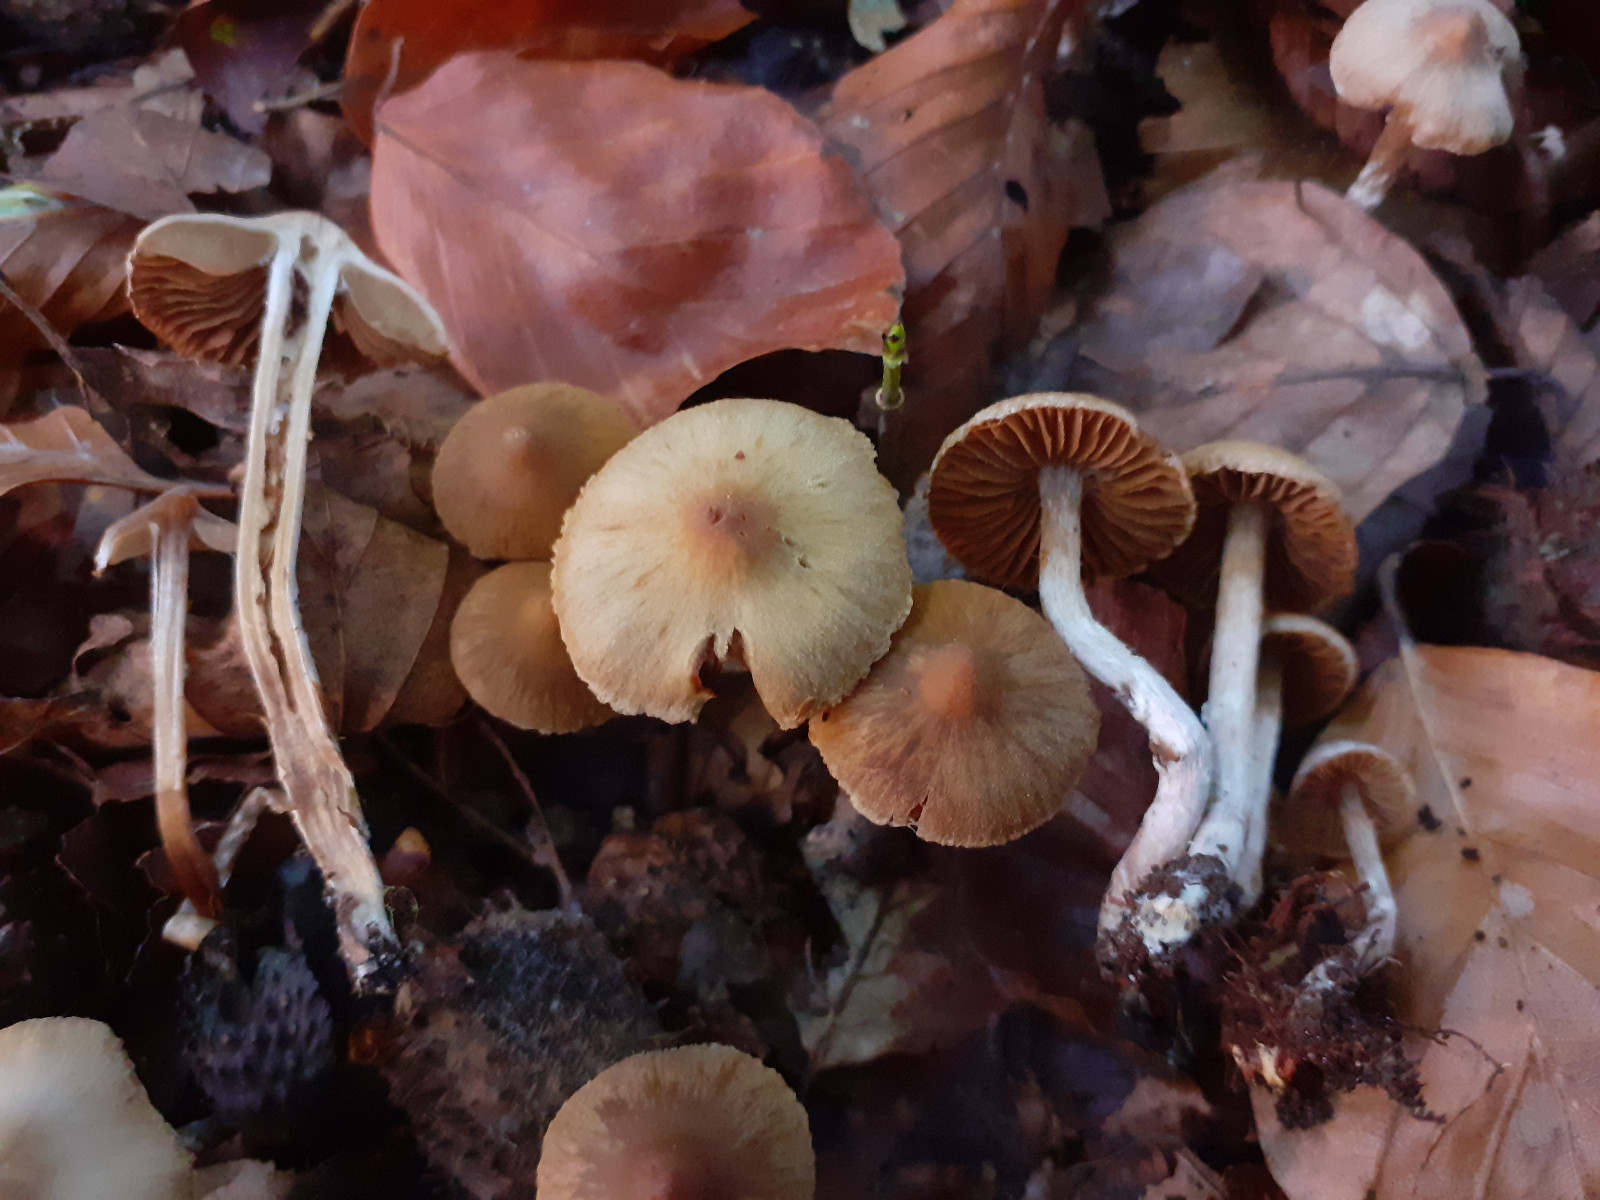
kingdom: Fungi
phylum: Basidiomycota
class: Agaricomycetes
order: Agaricales
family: Cortinariaceae
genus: Cortinarius
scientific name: Cortinarius pilatii
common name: Piláts slørhat
